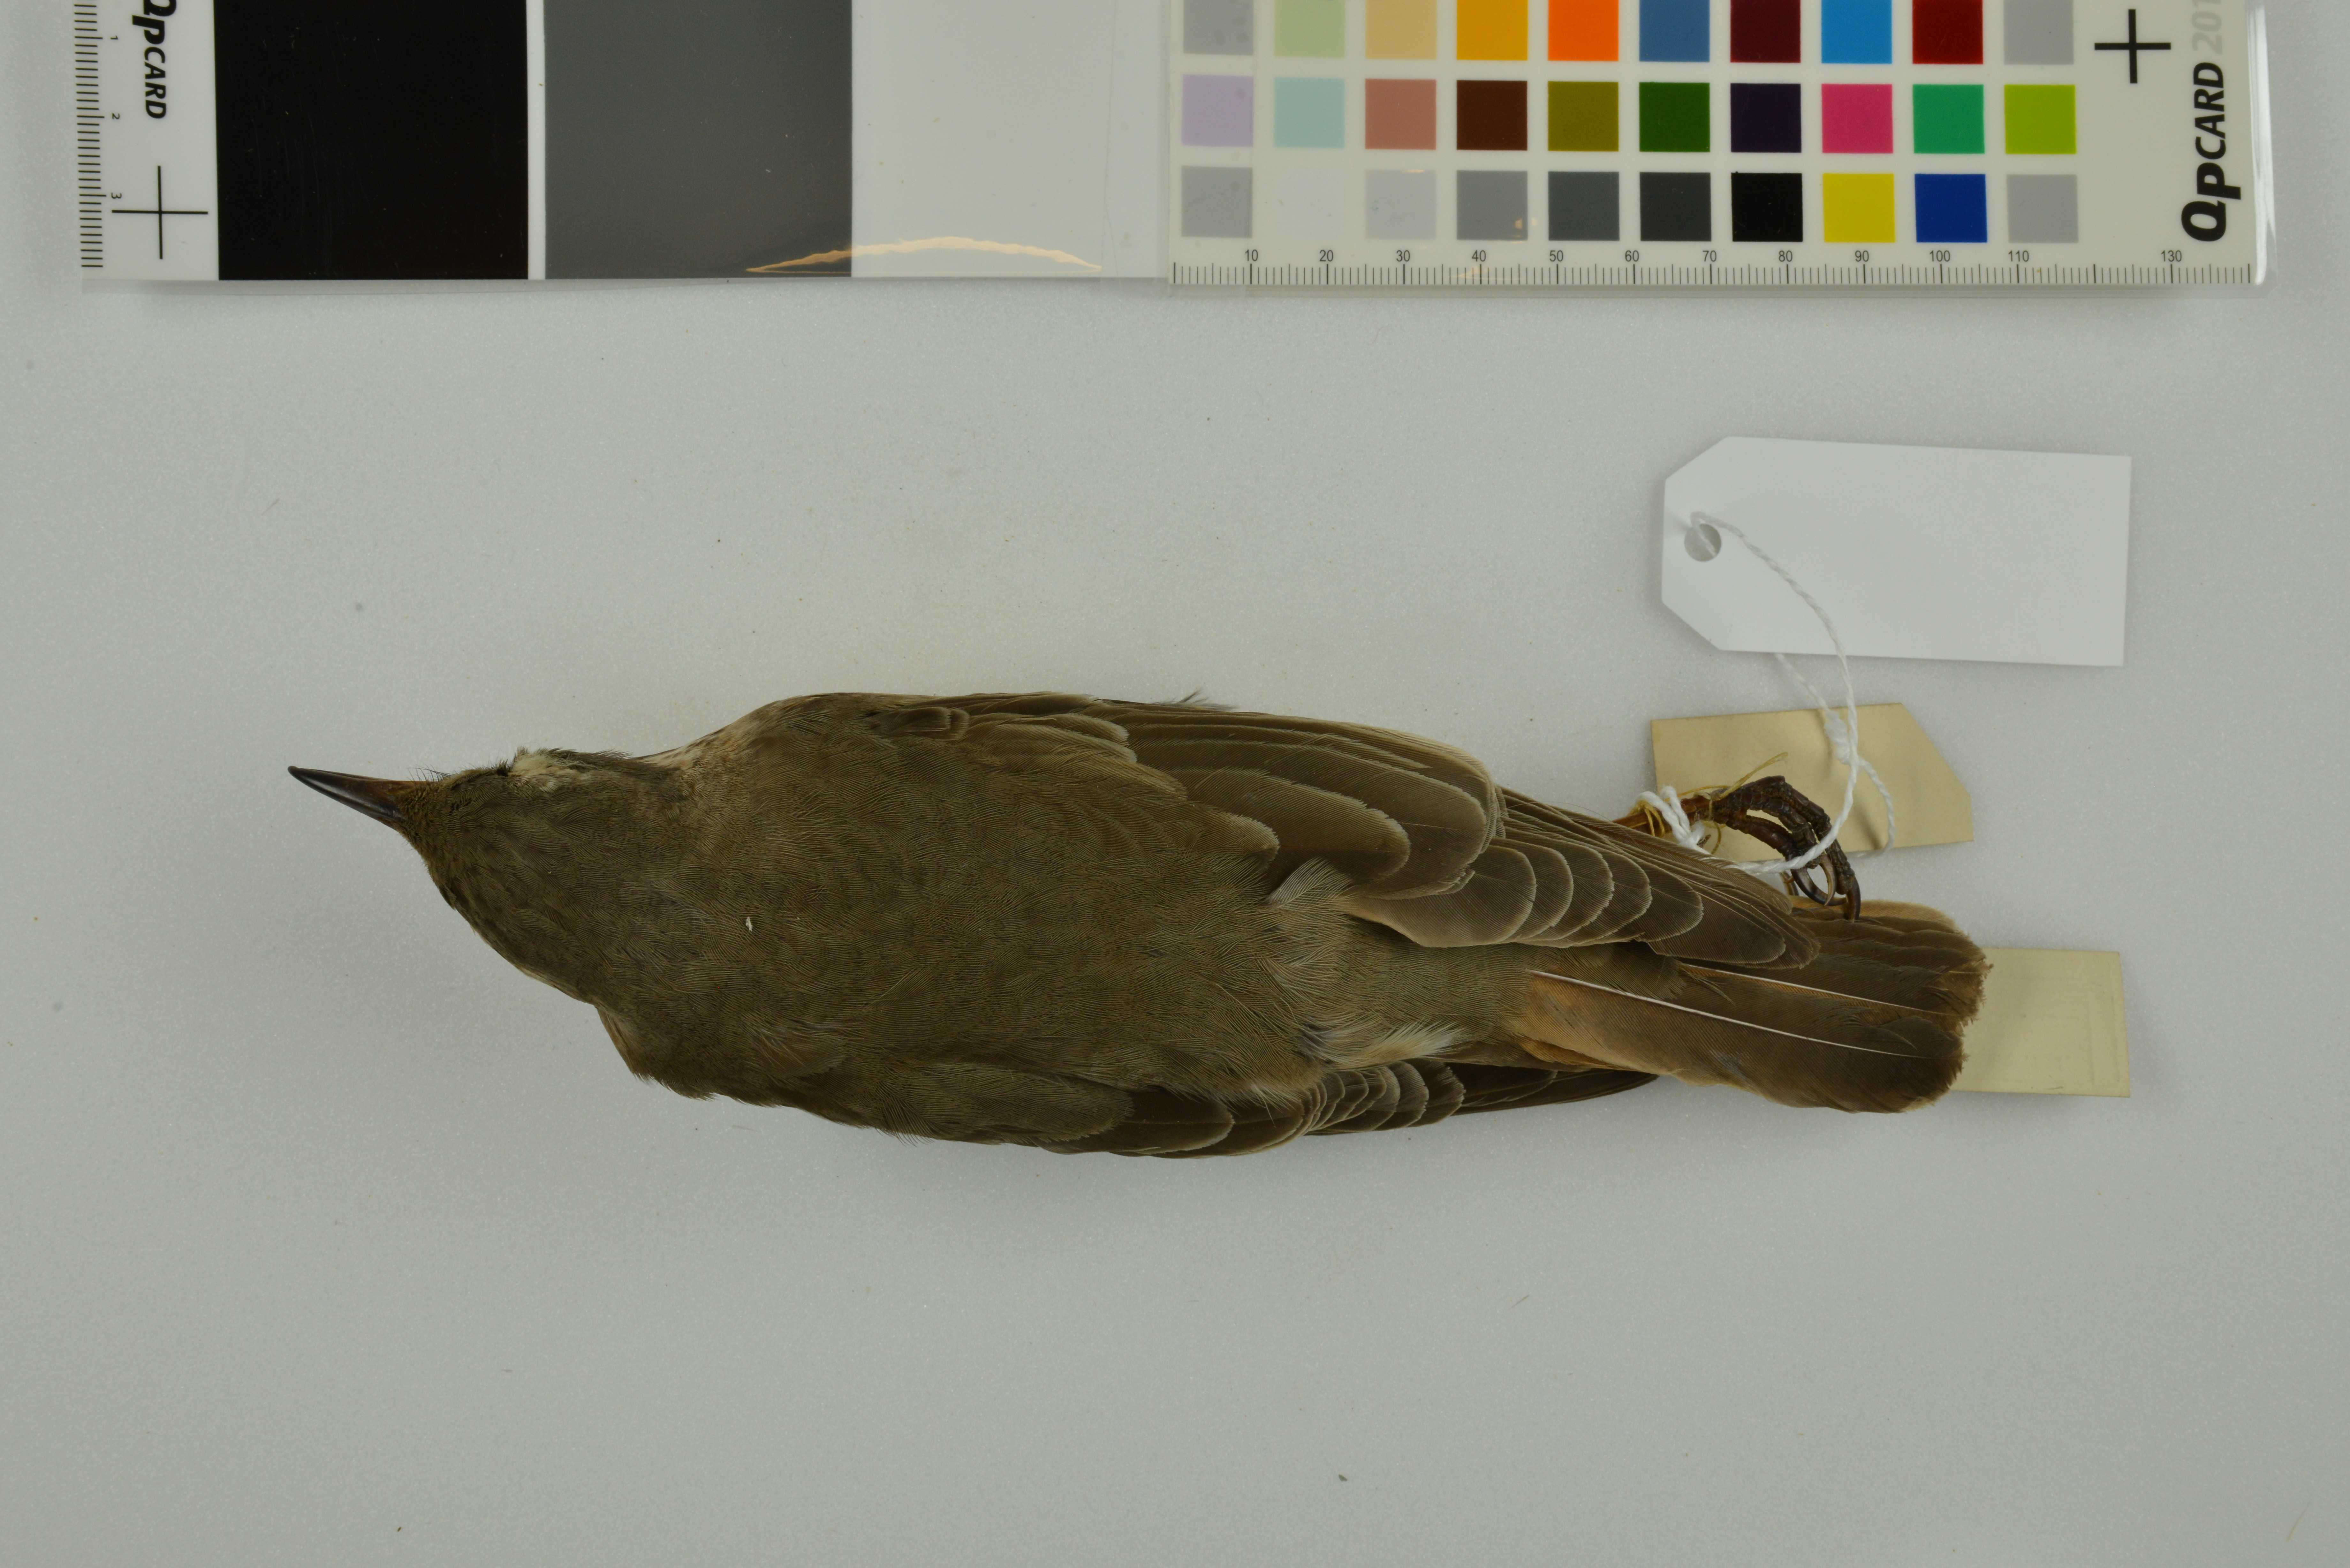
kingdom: Animalia
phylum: Chordata
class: Aves
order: Passeriformes
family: Turdidae
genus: Turdus
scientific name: Turdus naumanni
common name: Naumann's thrush
